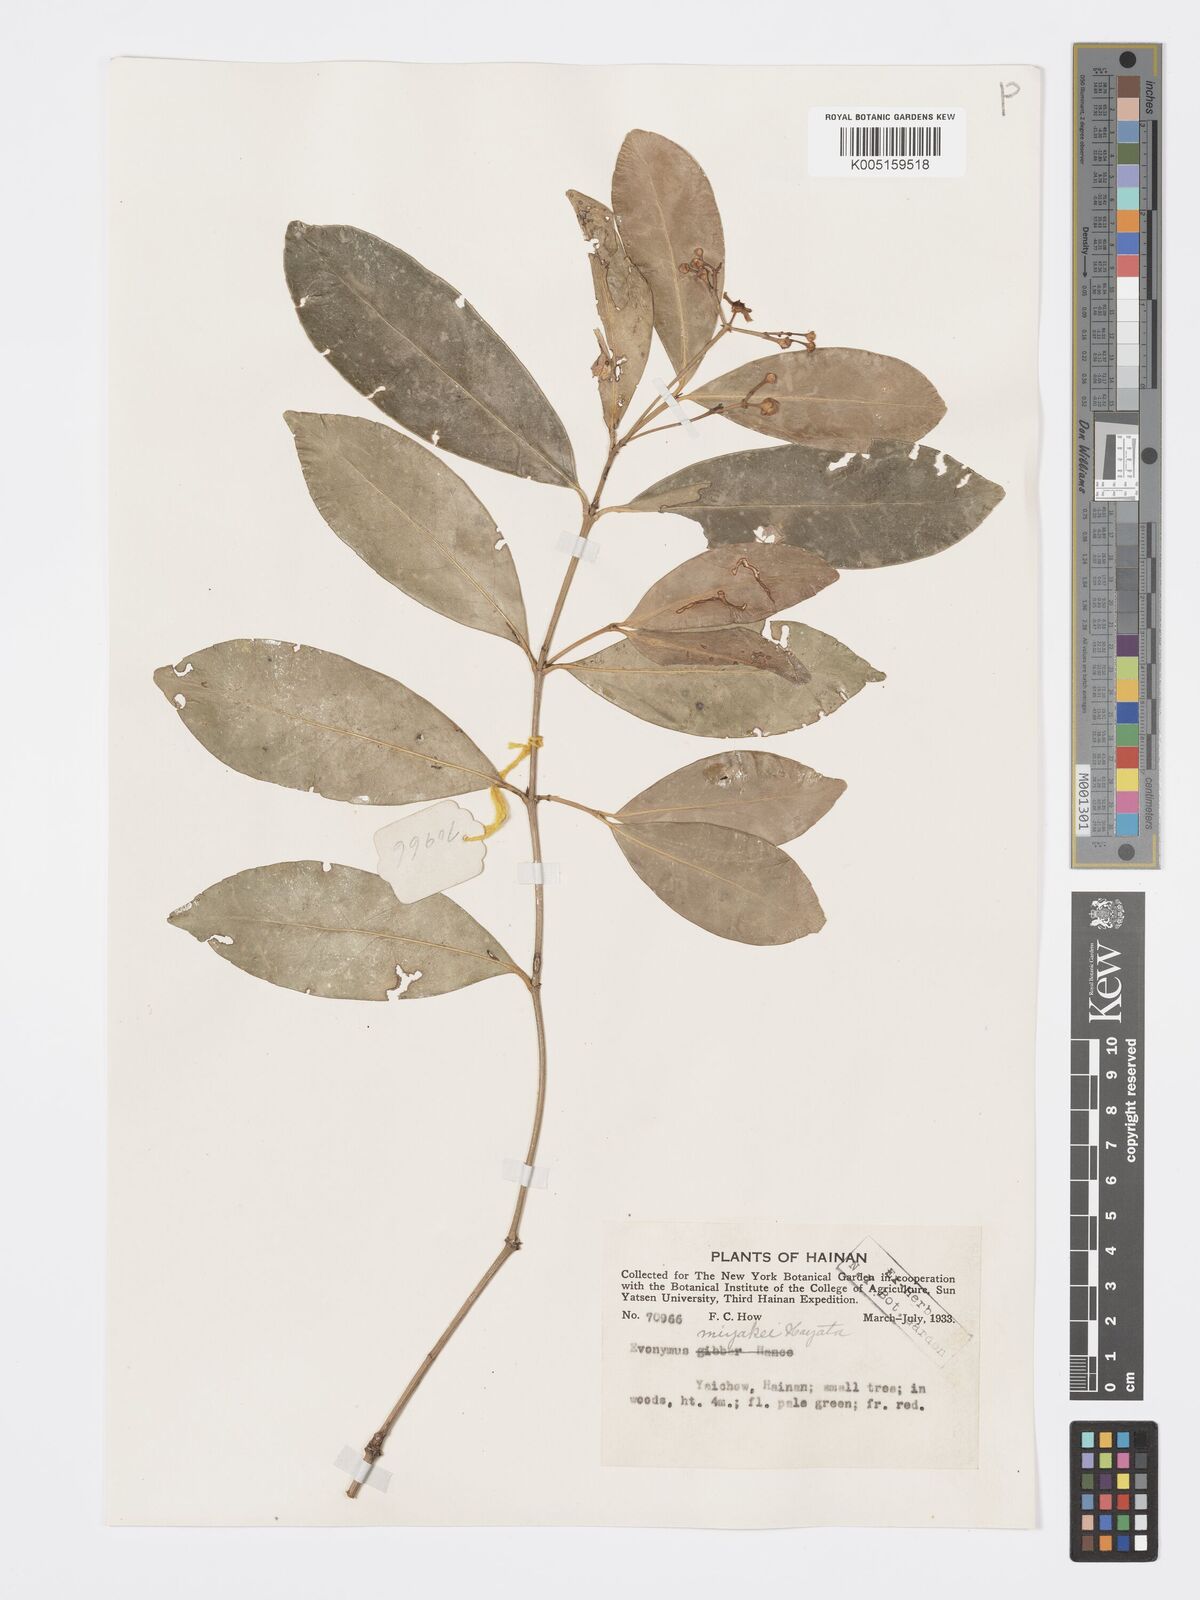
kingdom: Plantae
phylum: Tracheophyta
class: Magnoliopsida
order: Celastrales
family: Celastraceae
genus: Euonymus
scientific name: Euonymus cochinchinensis
